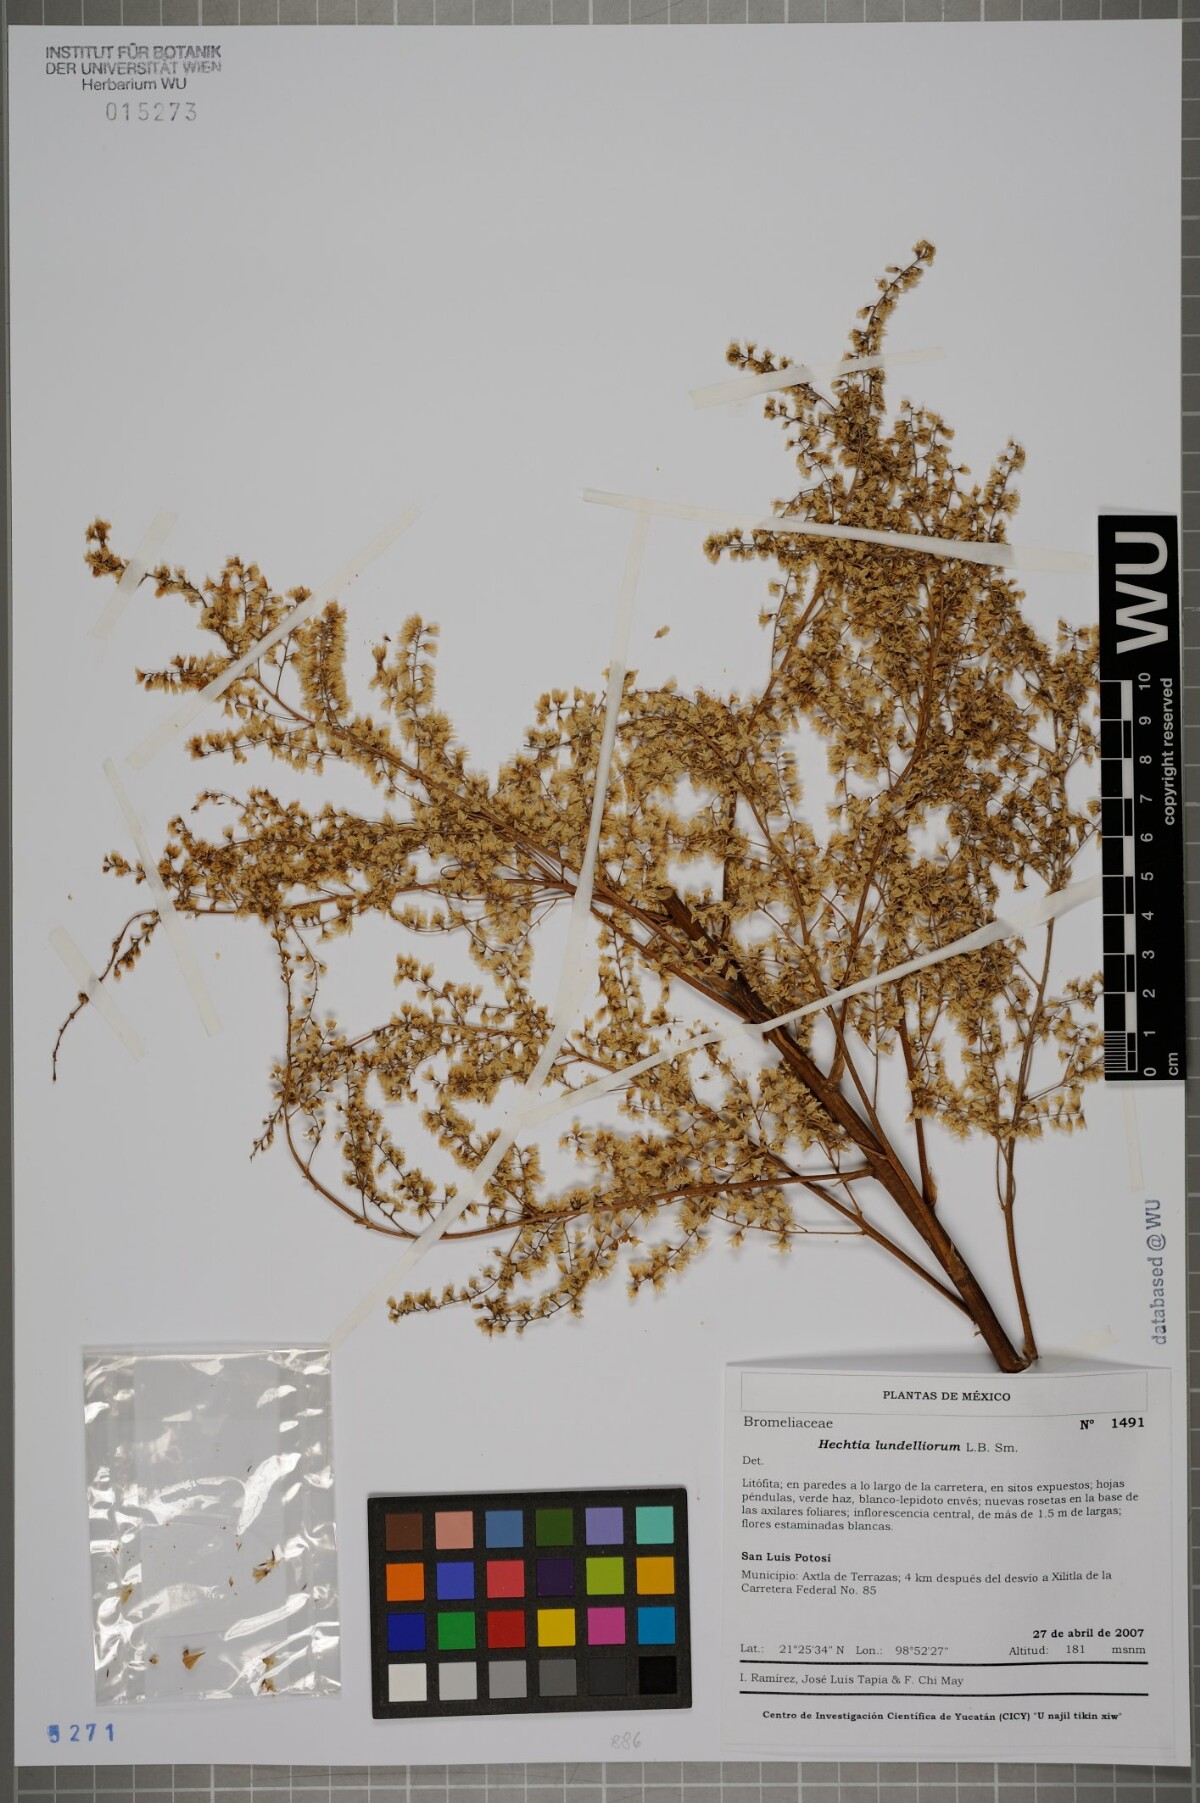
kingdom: Plantae
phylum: Tracheophyta
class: Liliopsida
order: Poales
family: Bromeliaceae
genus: Hechtia
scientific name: Hechtia lundelliorum
